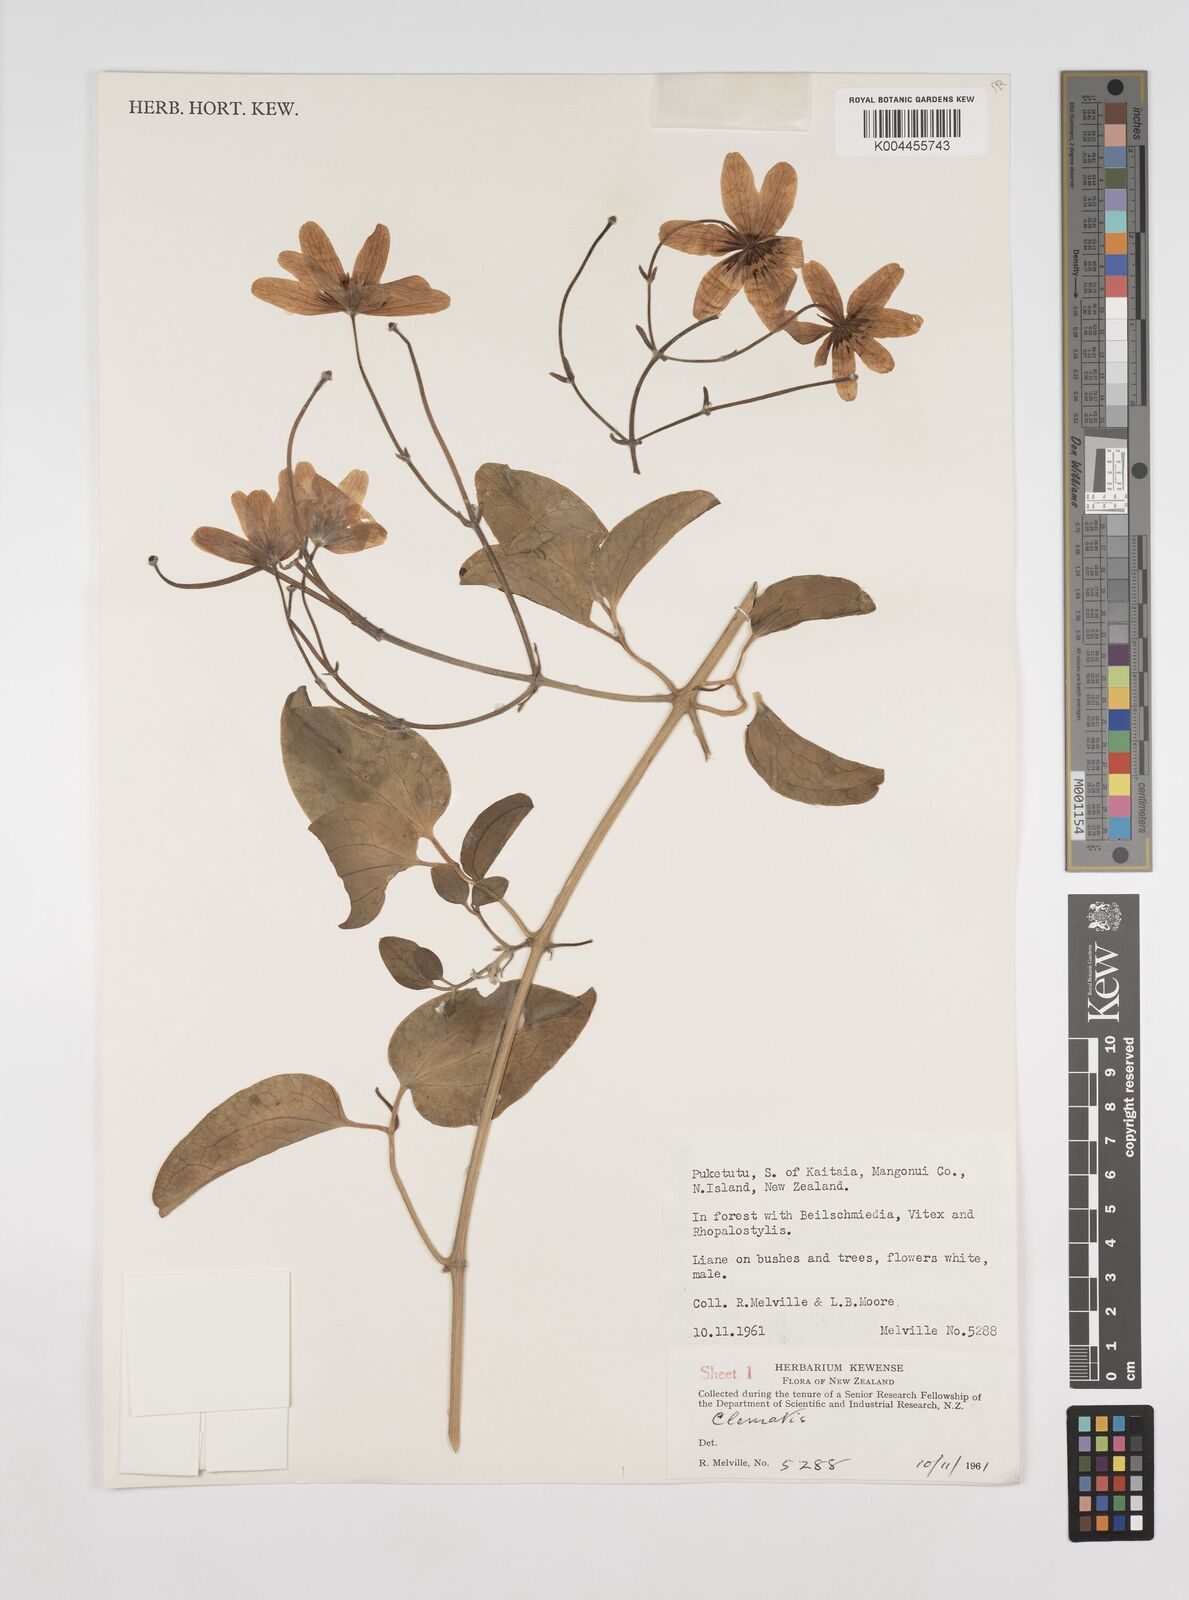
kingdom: Plantae
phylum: Tracheophyta
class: Magnoliopsida
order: Ranunculales
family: Ranunculaceae
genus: Clematis
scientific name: Clematis
